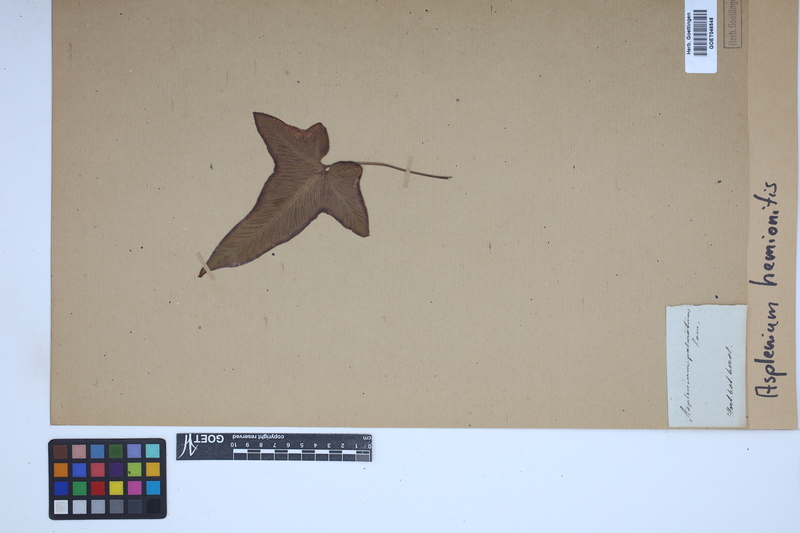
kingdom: Plantae
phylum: Tracheophyta
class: Polypodiopsida
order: Polypodiales
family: Aspleniaceae
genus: Asplenium
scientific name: Asplenium hemionitis
